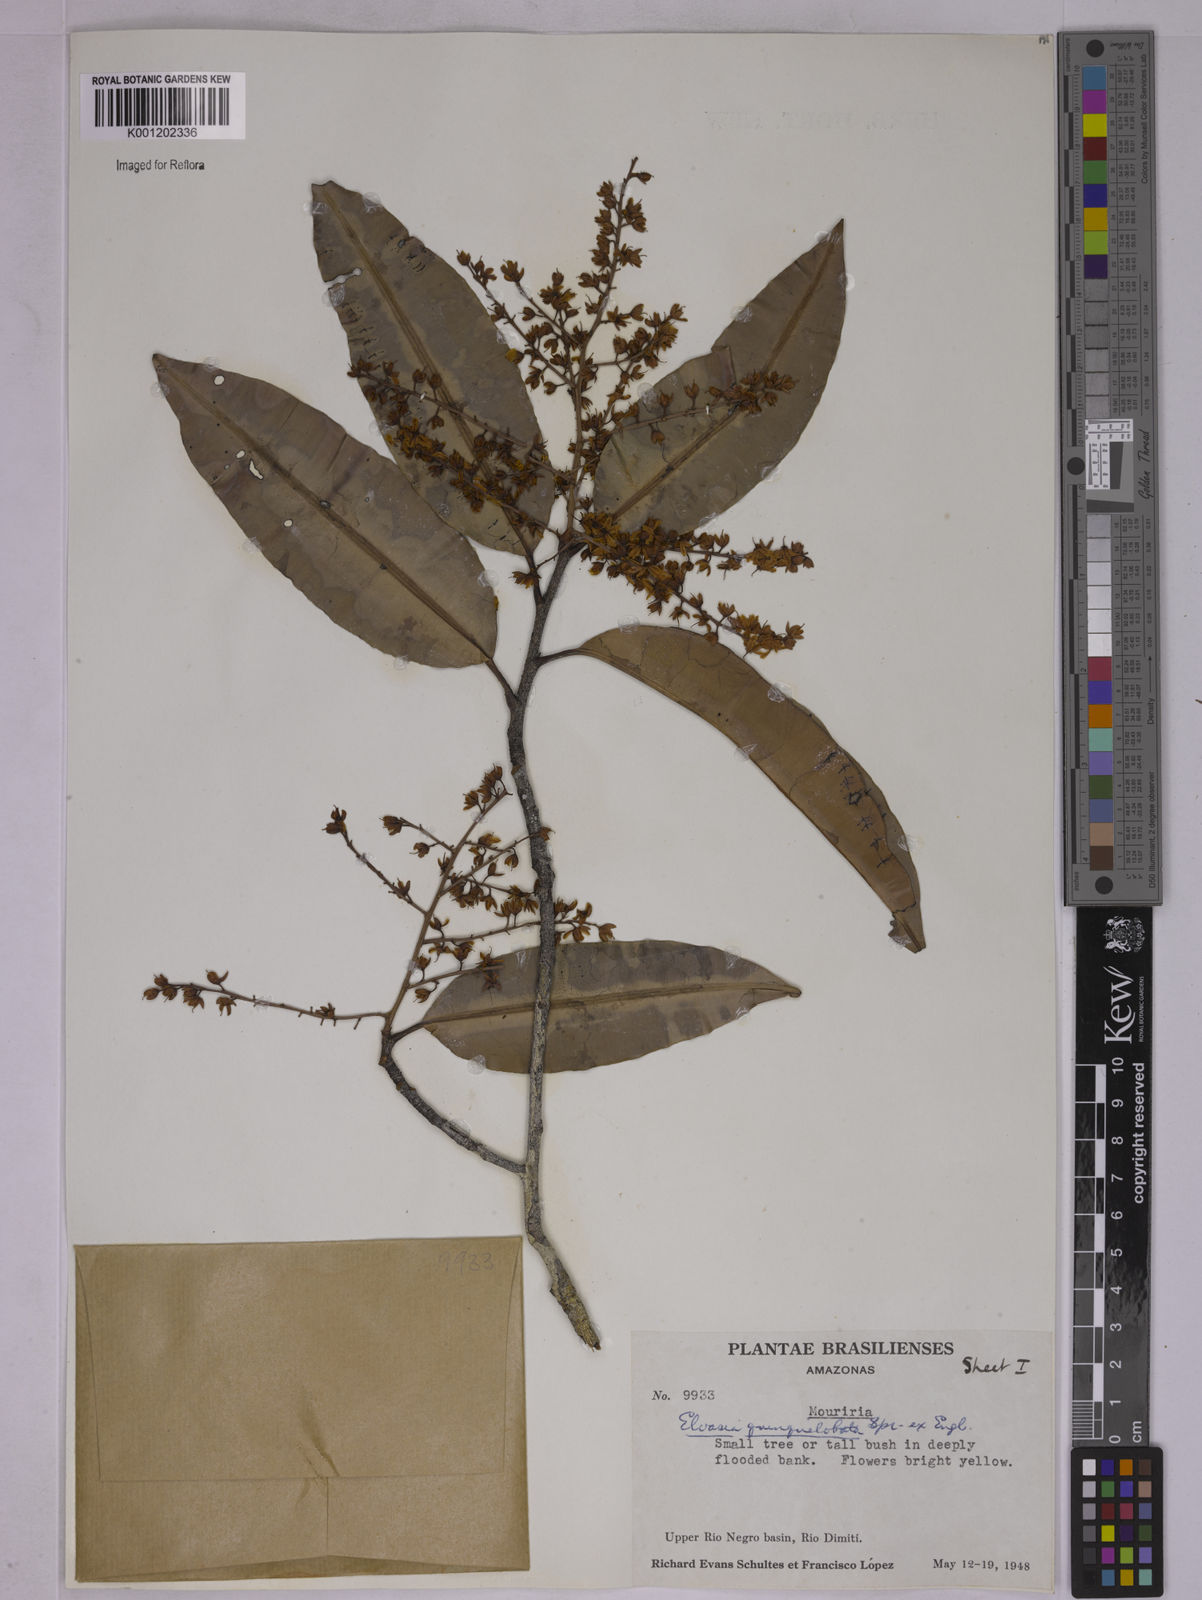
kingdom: Plantae
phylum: Tracheophyta
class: Magnoliopsida
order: Malpighiales
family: Ochnaceae
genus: Elvasia
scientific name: Elvasia quinqueloba
